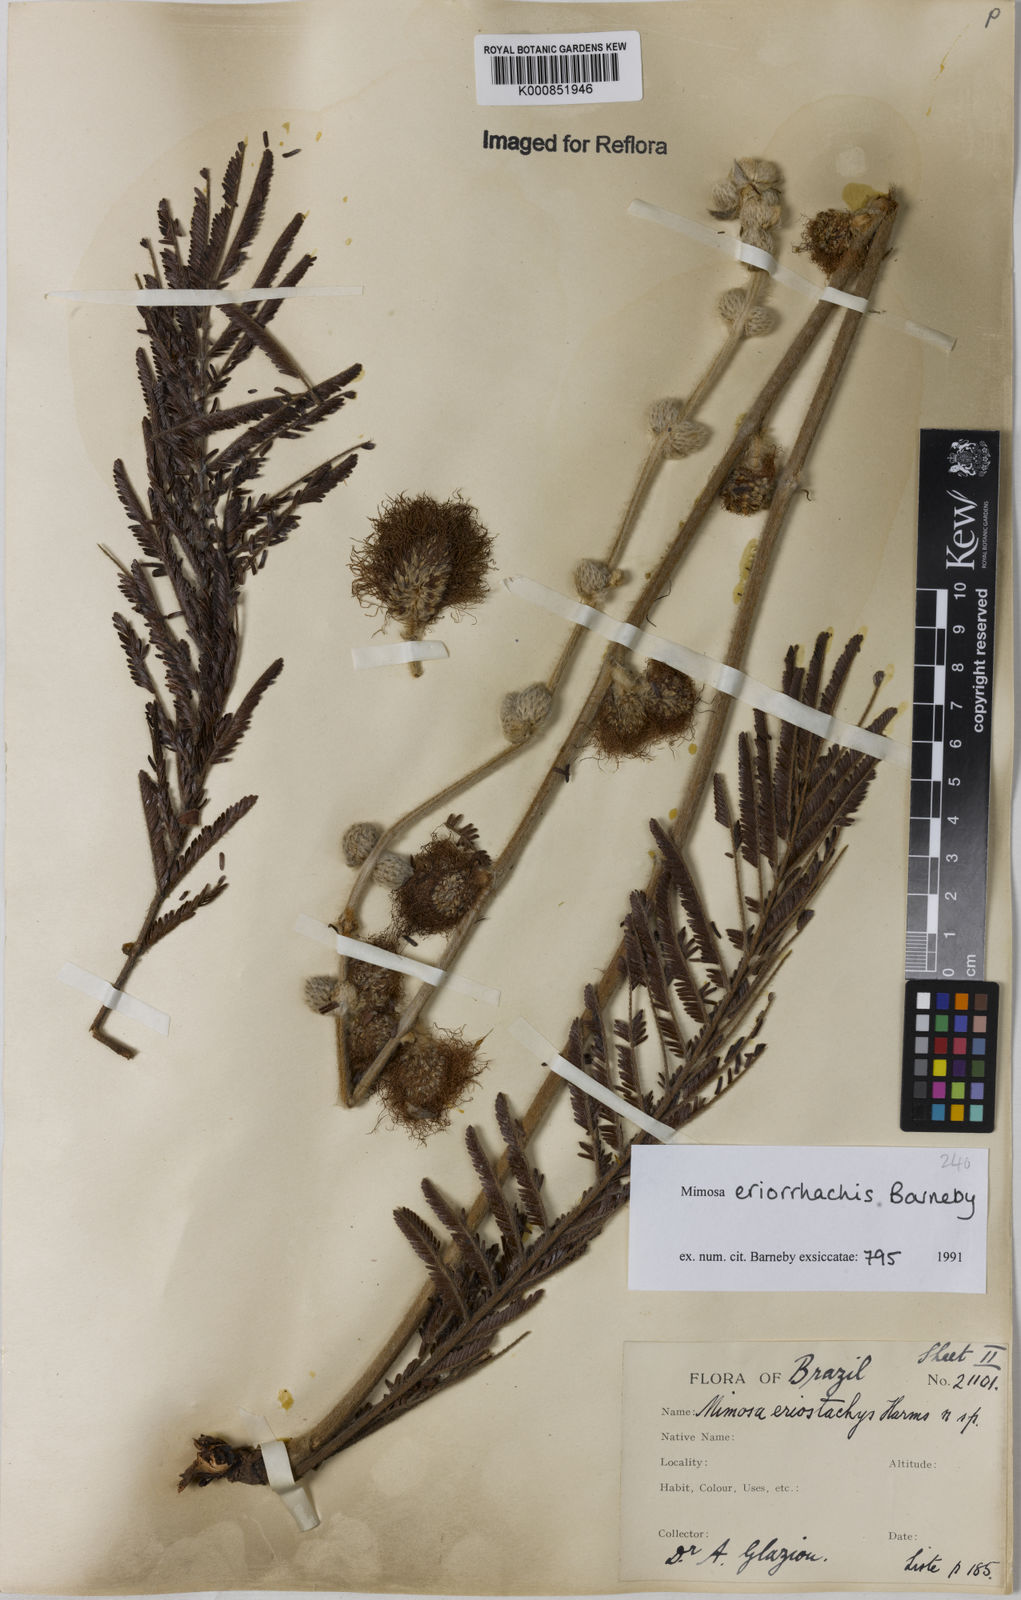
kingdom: Plantae
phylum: Tracheophyta
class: Magnoliopsida
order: Fabales
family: Fabaceae
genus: Mimosa
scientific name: Mimosa eriorrhachis
